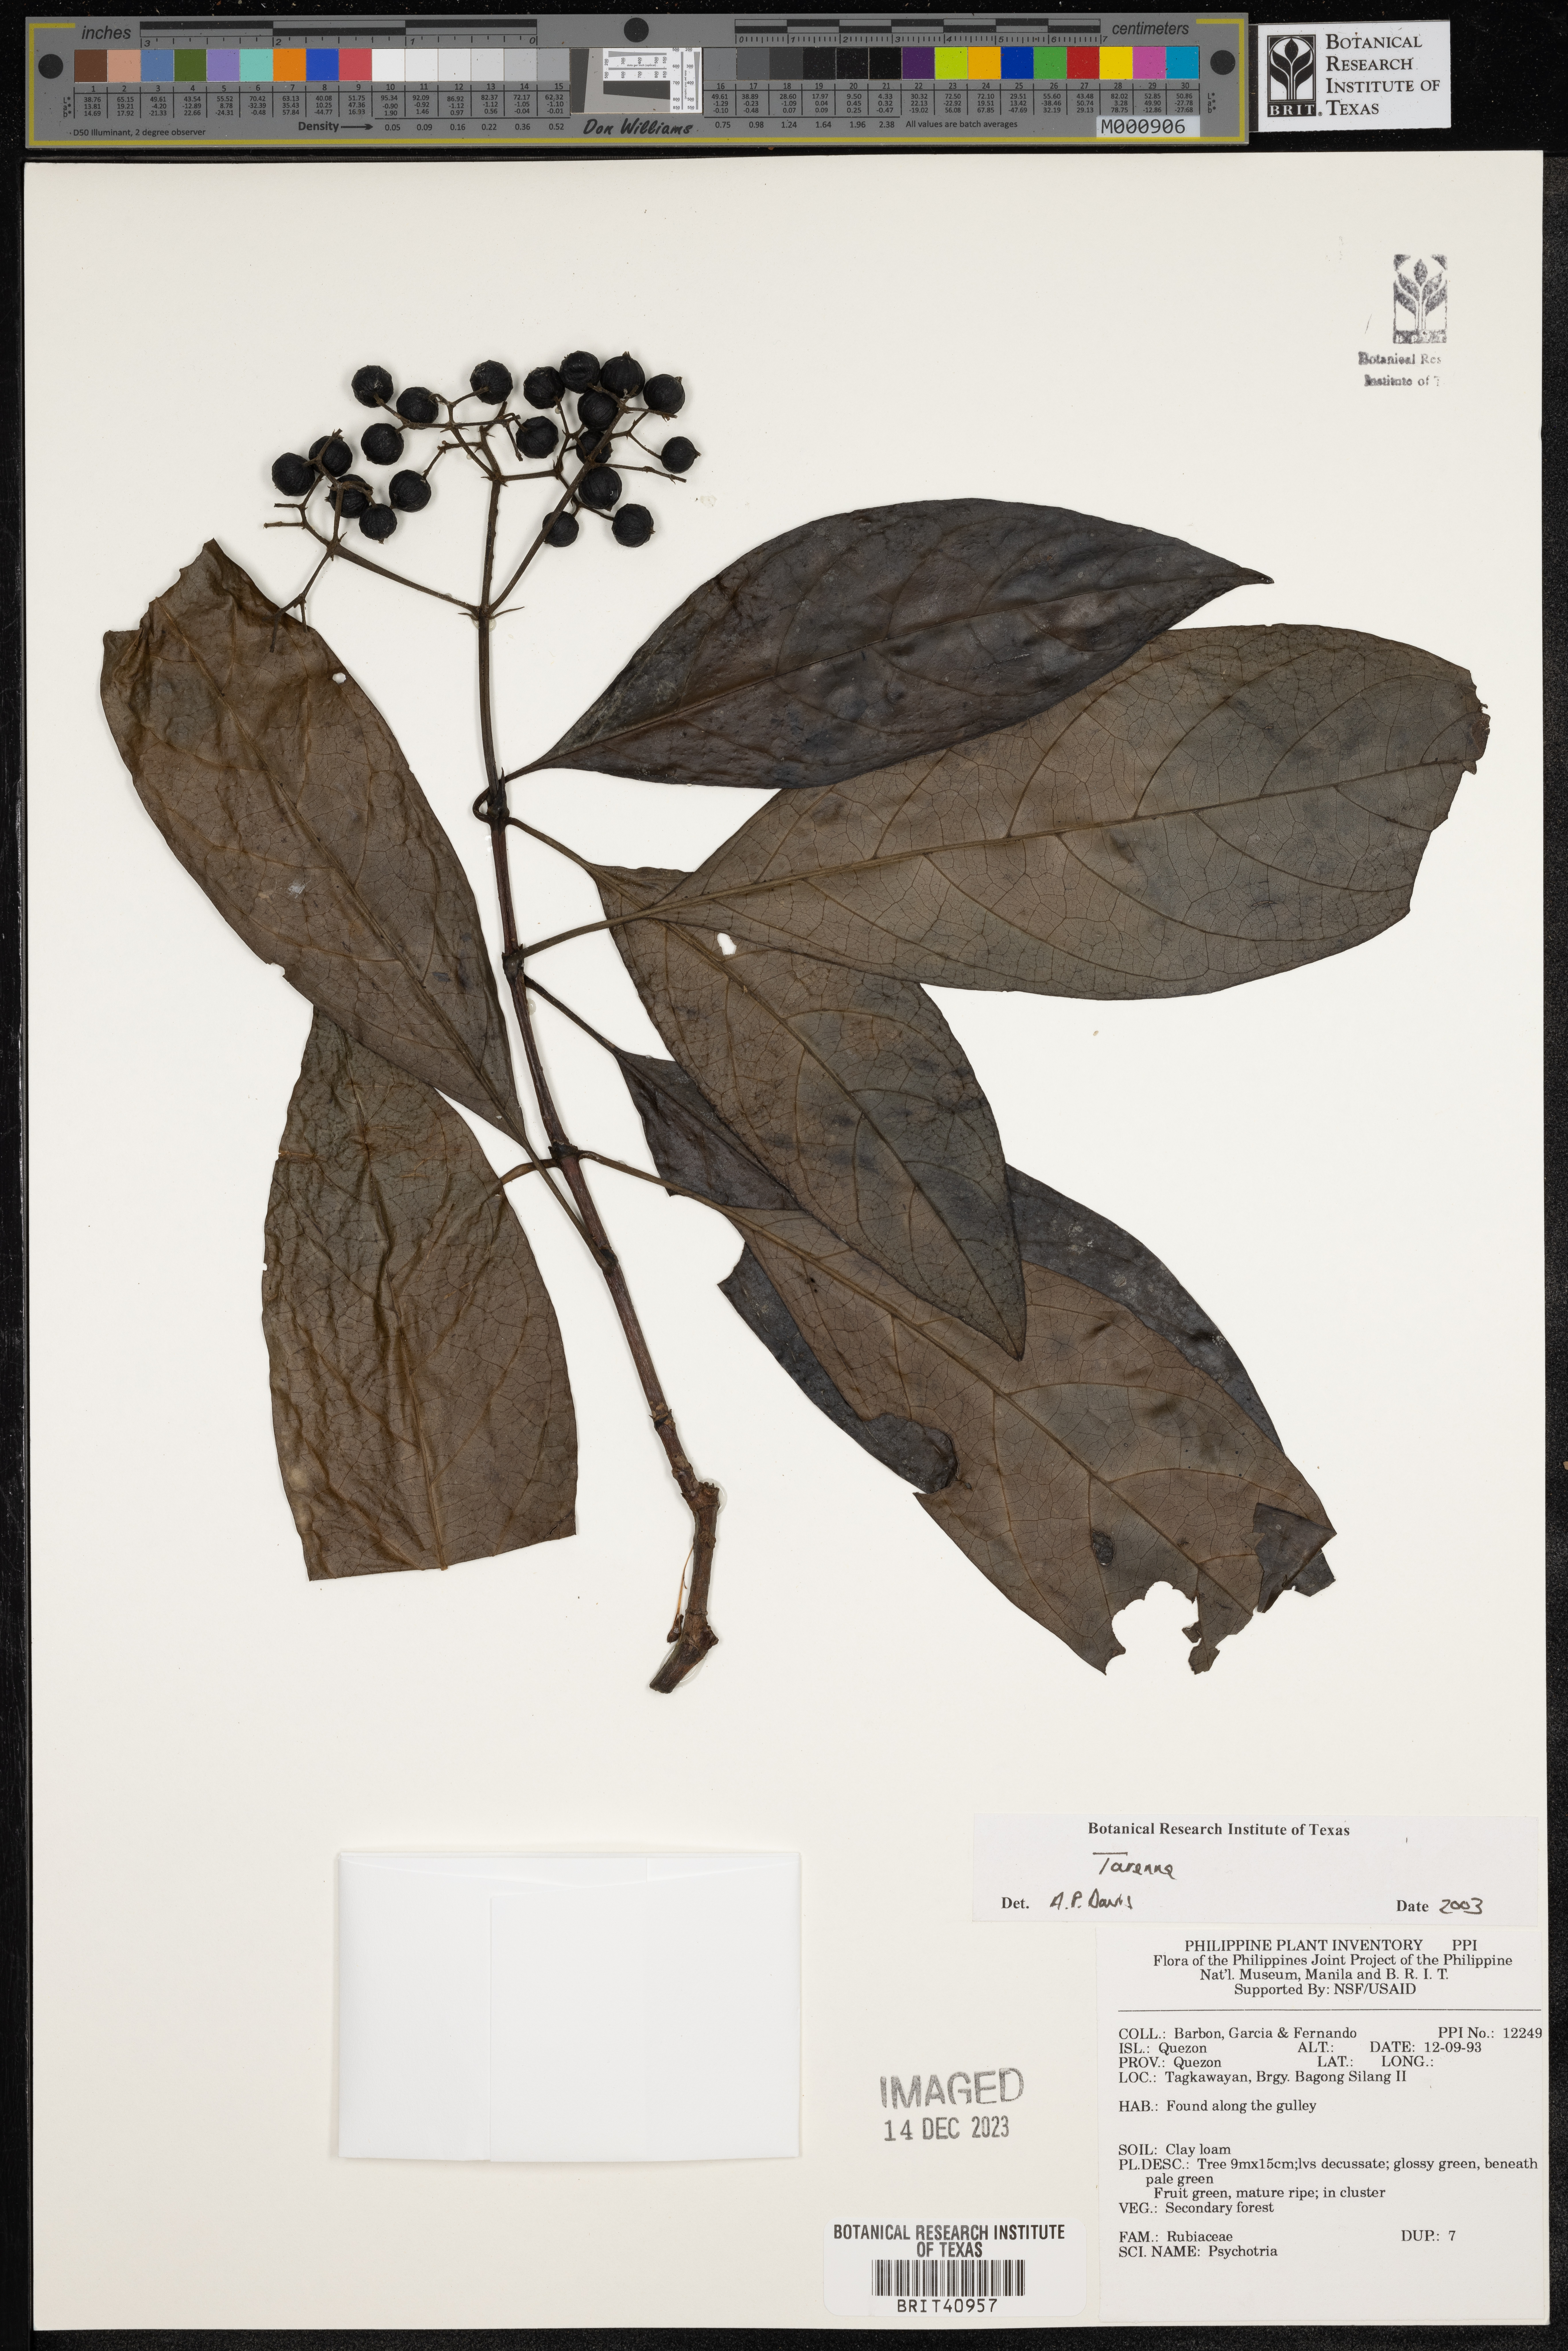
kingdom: Plantae
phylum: Tracheophyta
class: Magnoliopsida
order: Gentianales
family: Rubiaceae
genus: Tarenna
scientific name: Tarenna
